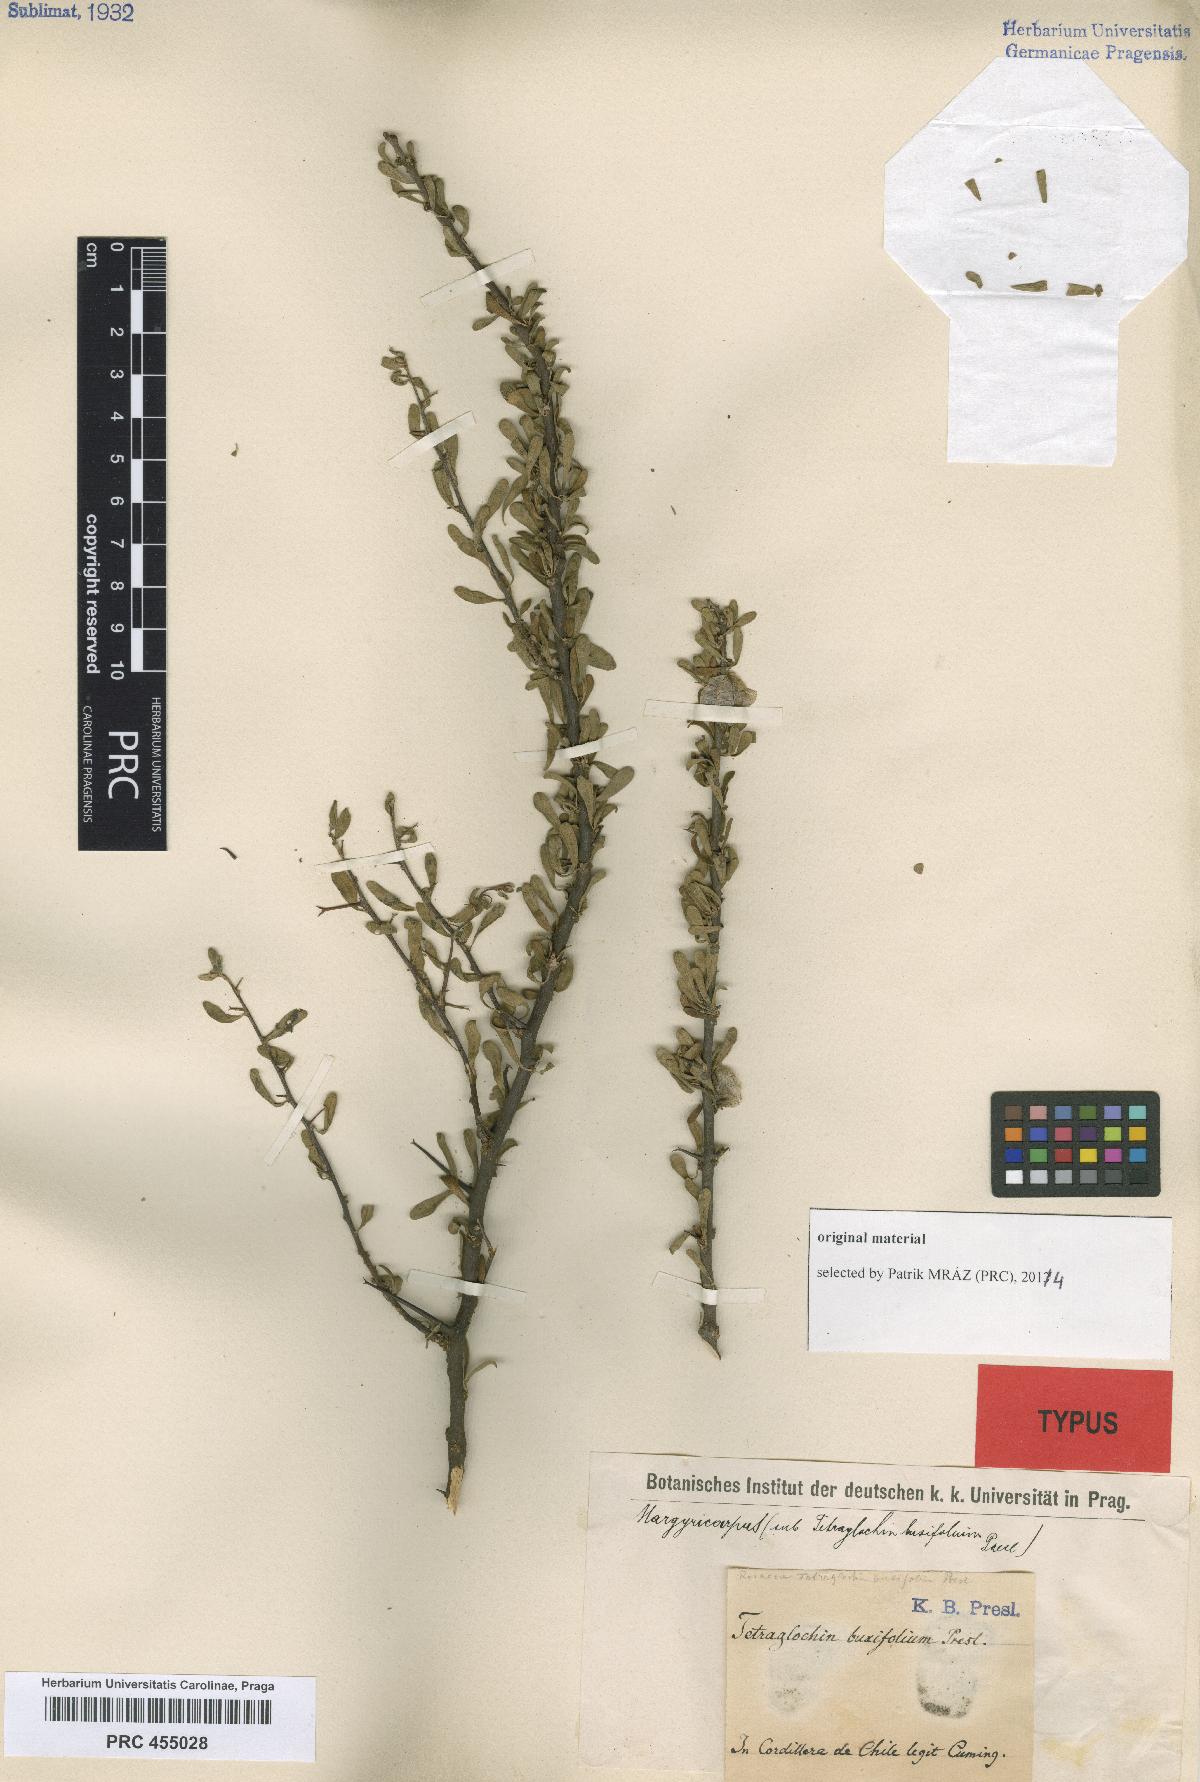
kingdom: Plantae
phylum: Tracheophyta
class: Magnoliopsida
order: Rosales
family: Rosaceae
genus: Margyricarpus
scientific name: Margyricarpus alatus
